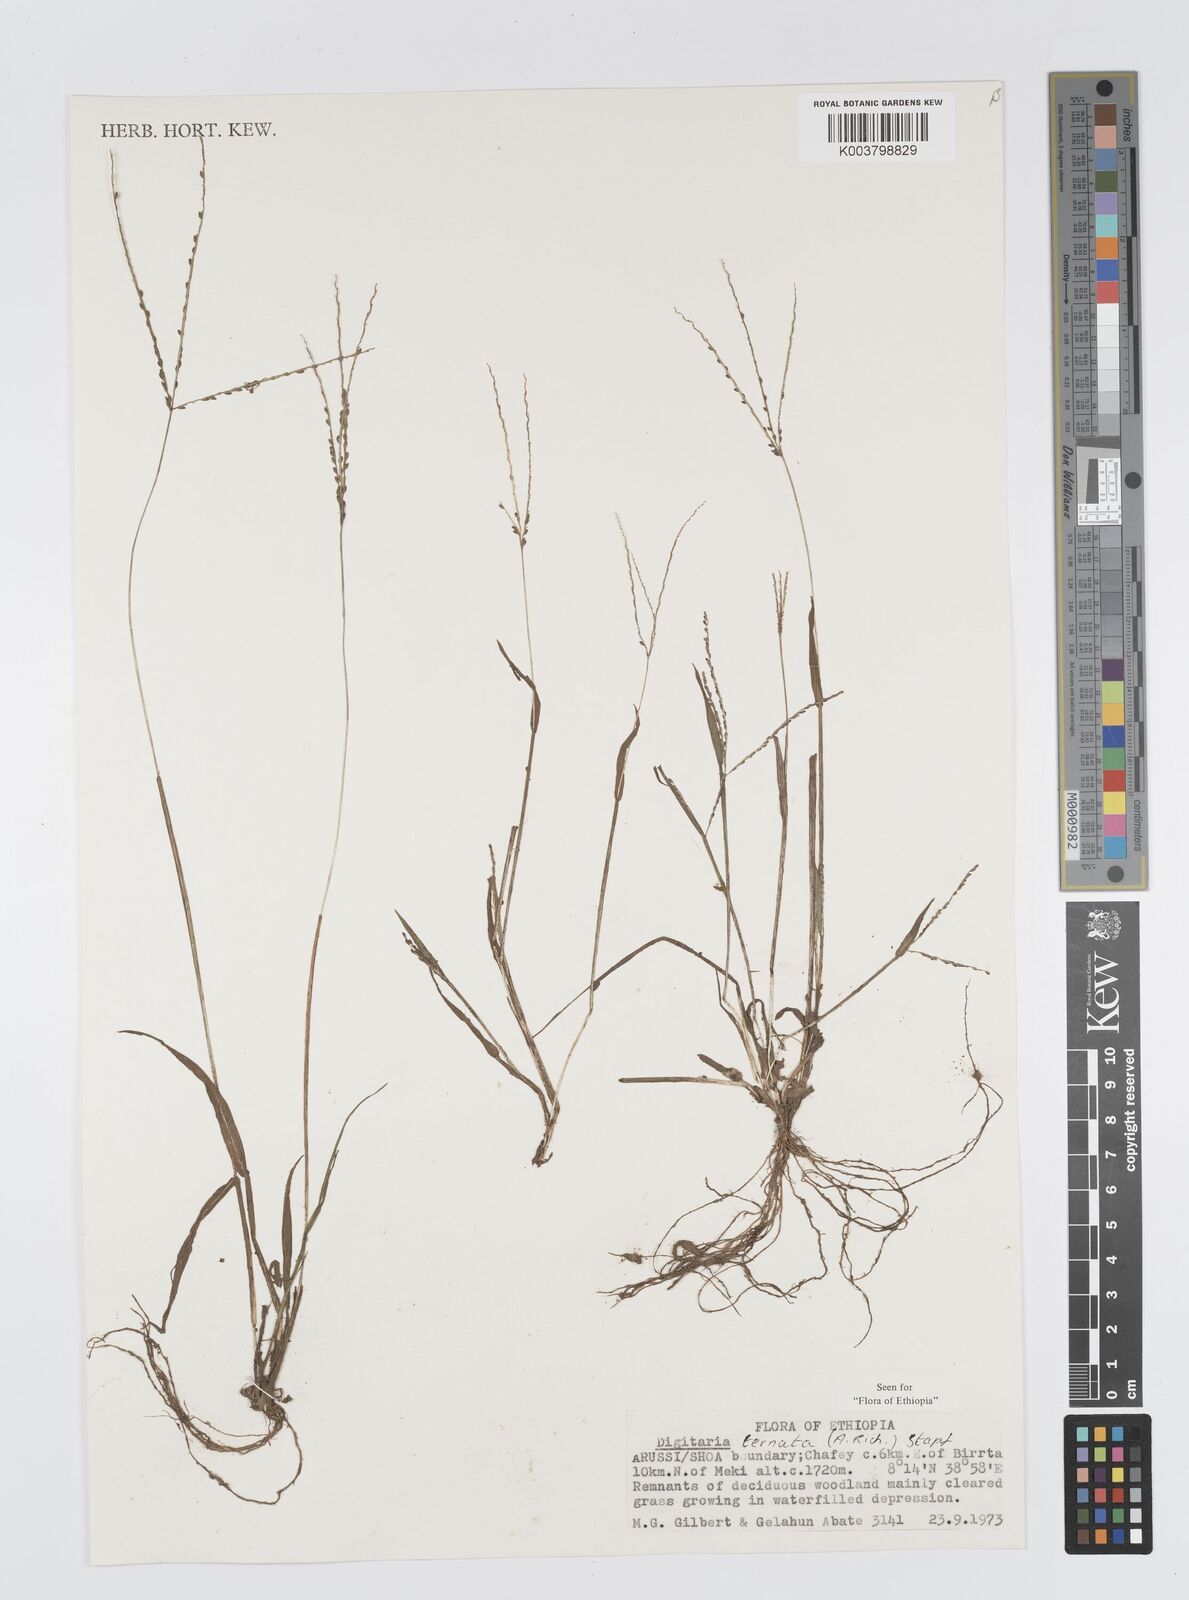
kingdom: Plantae
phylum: Tracheophyta
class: Liliopsida
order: Poales
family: Poaceae
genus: Digitaria
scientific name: Digitaria ternata
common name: Blackseed crabgrass
